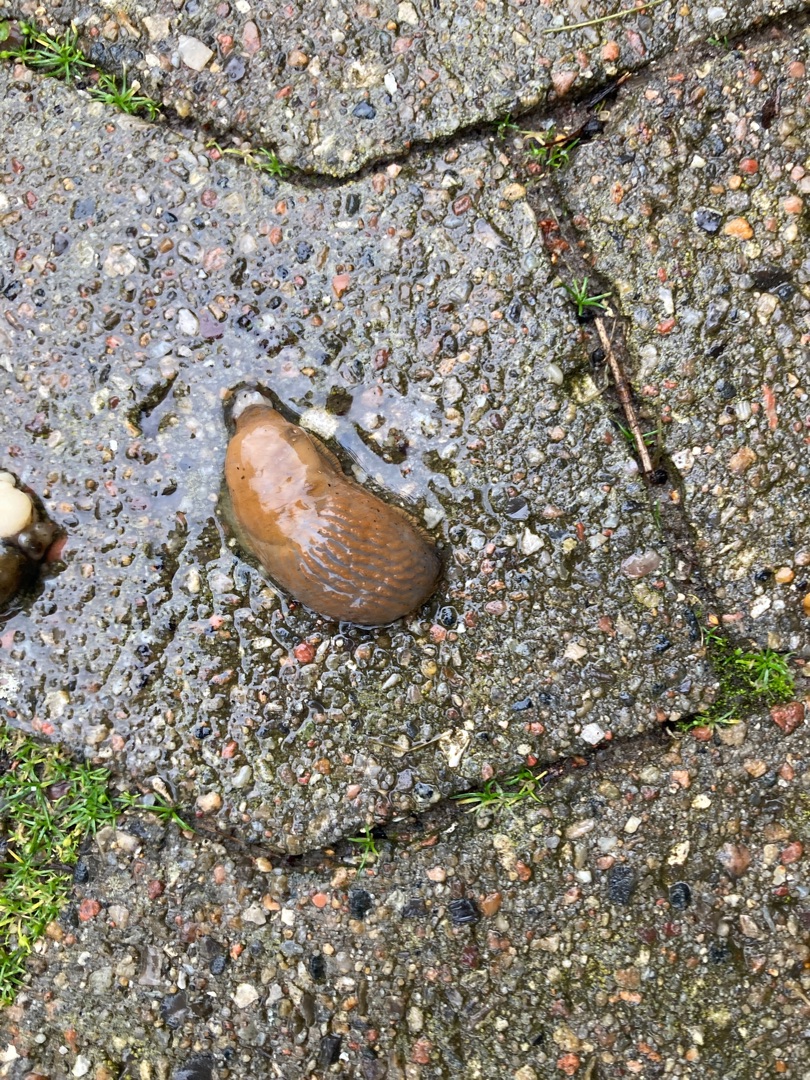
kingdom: Animalia
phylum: Mollusca
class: Gastropoda
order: Stylommatophora
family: Arionidae
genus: Arion
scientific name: Arion vulgaris
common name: Iberisk skovsnegl
